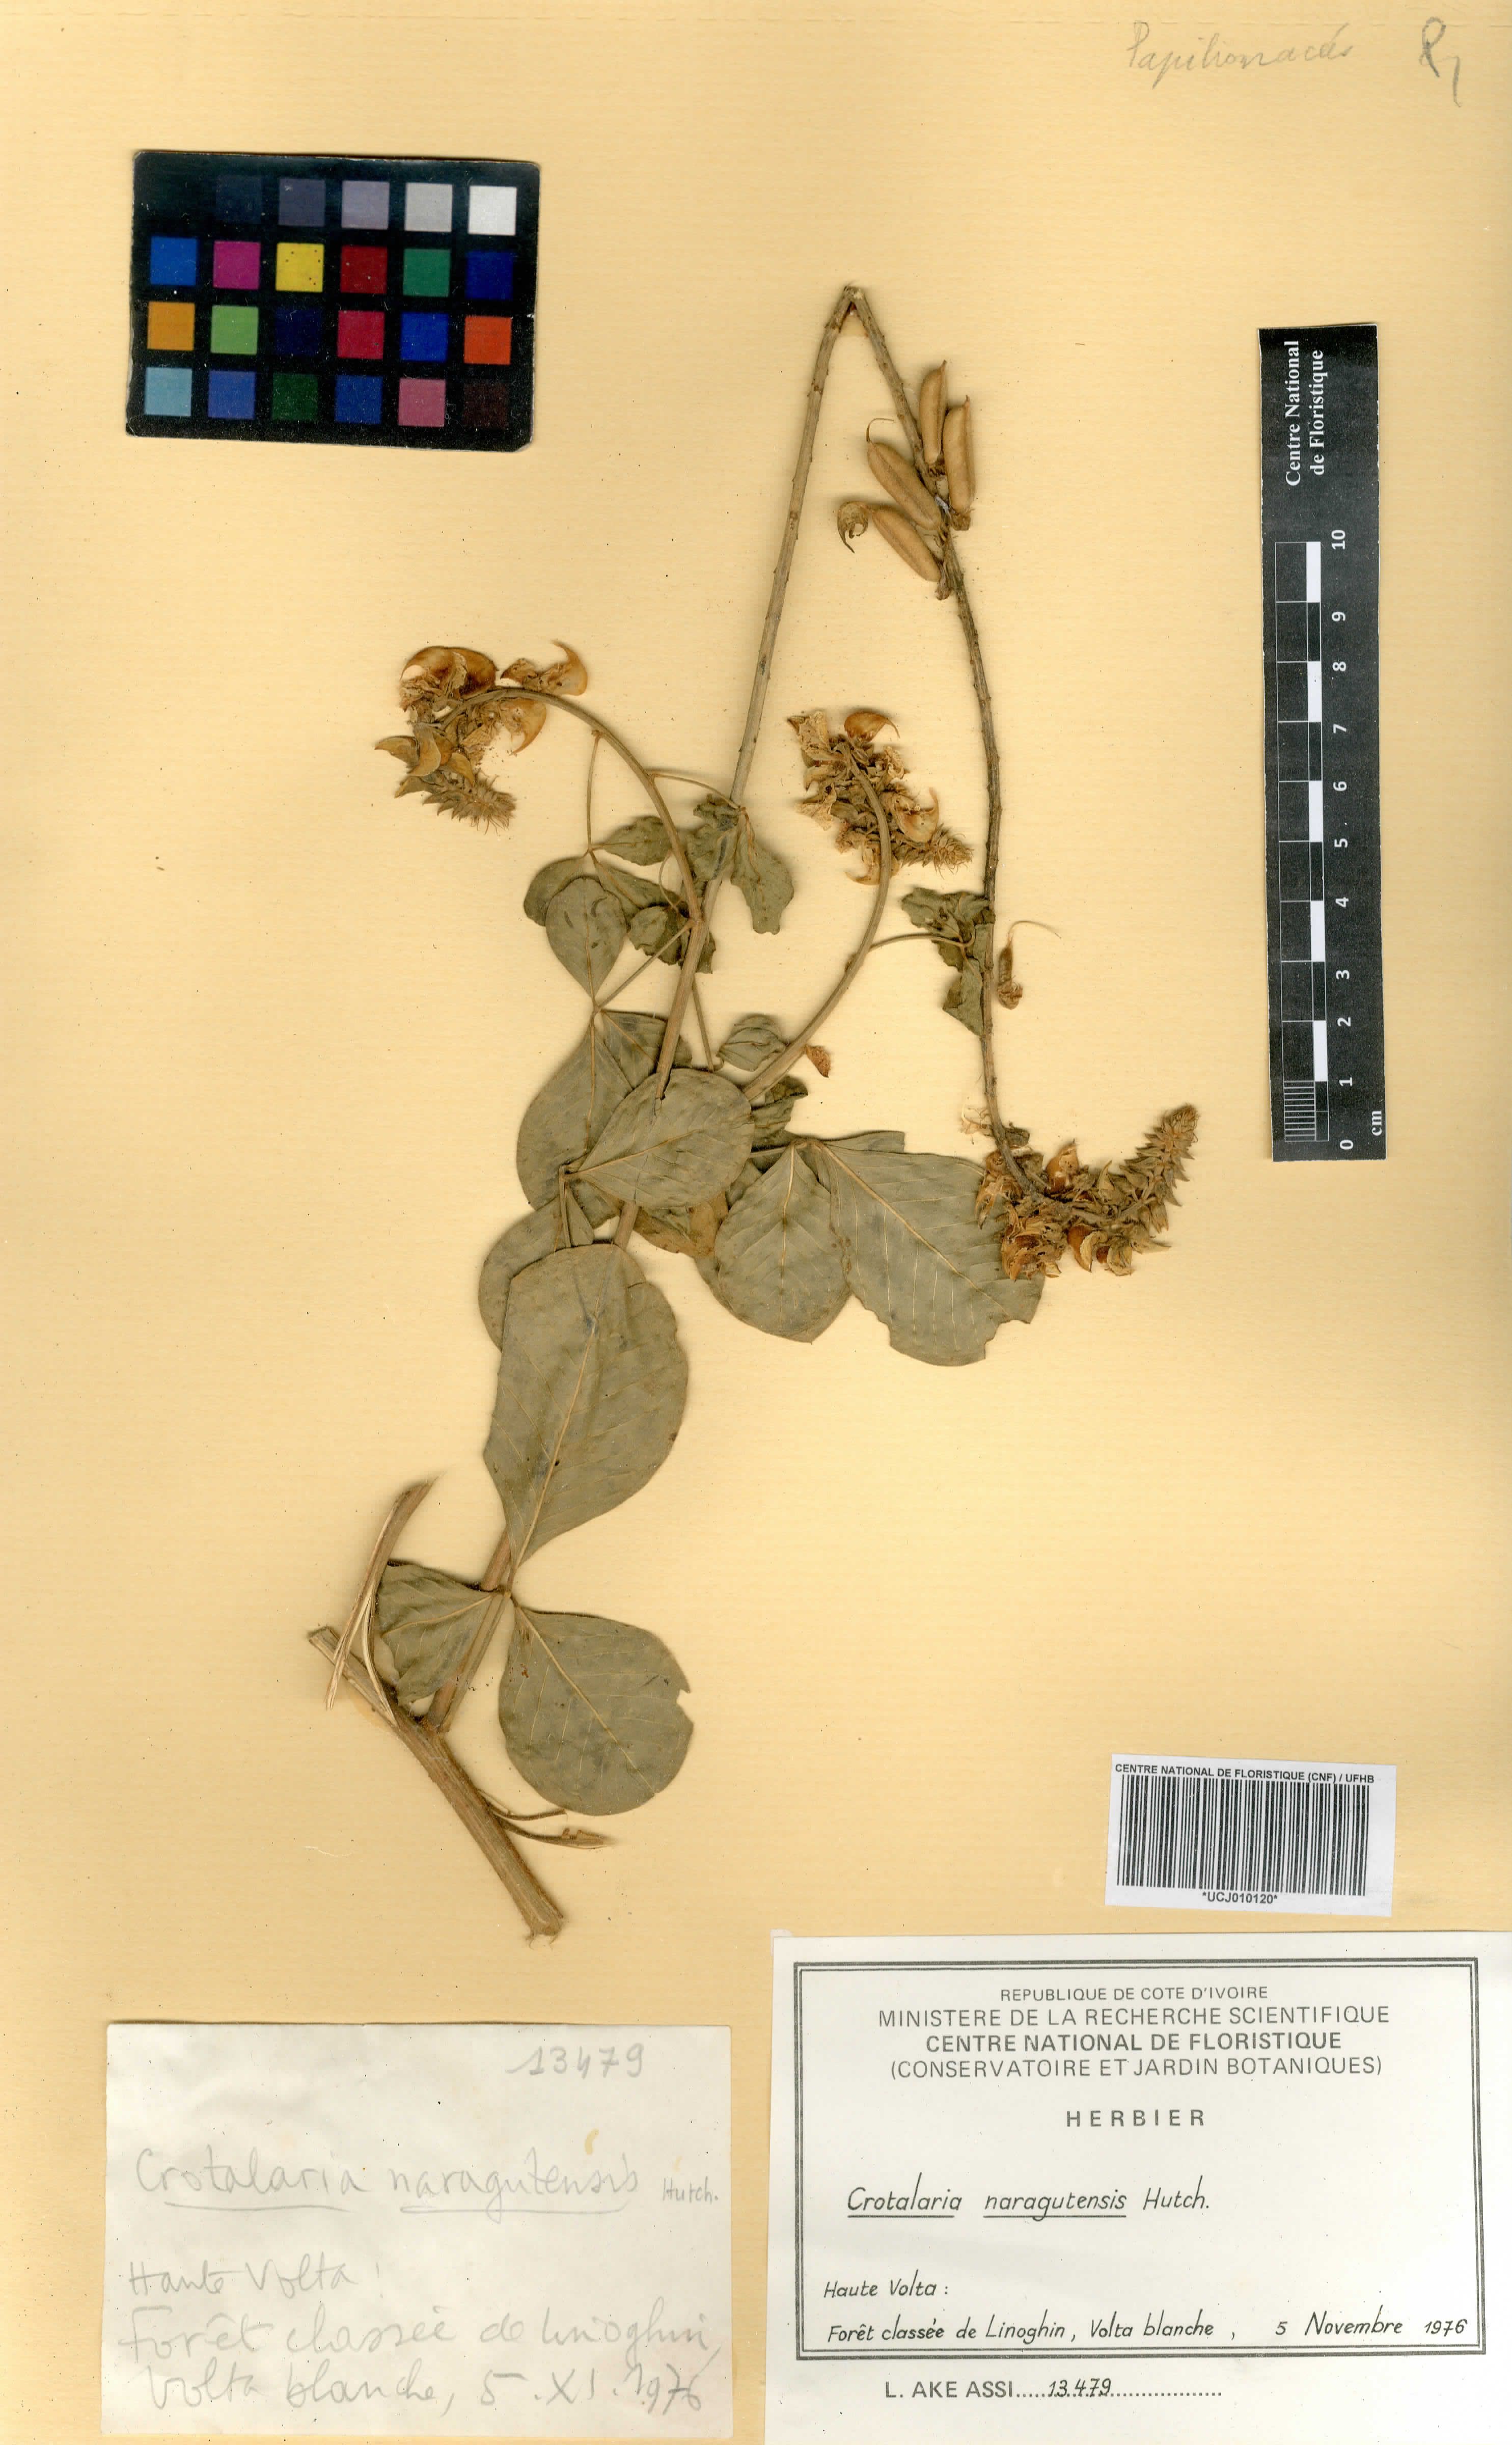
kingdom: Plantae
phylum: Tracheophyta
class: Magnoliopsida
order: Fabales
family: Fabaceae
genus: Crotalaria
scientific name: Crotalaria naragutensis
